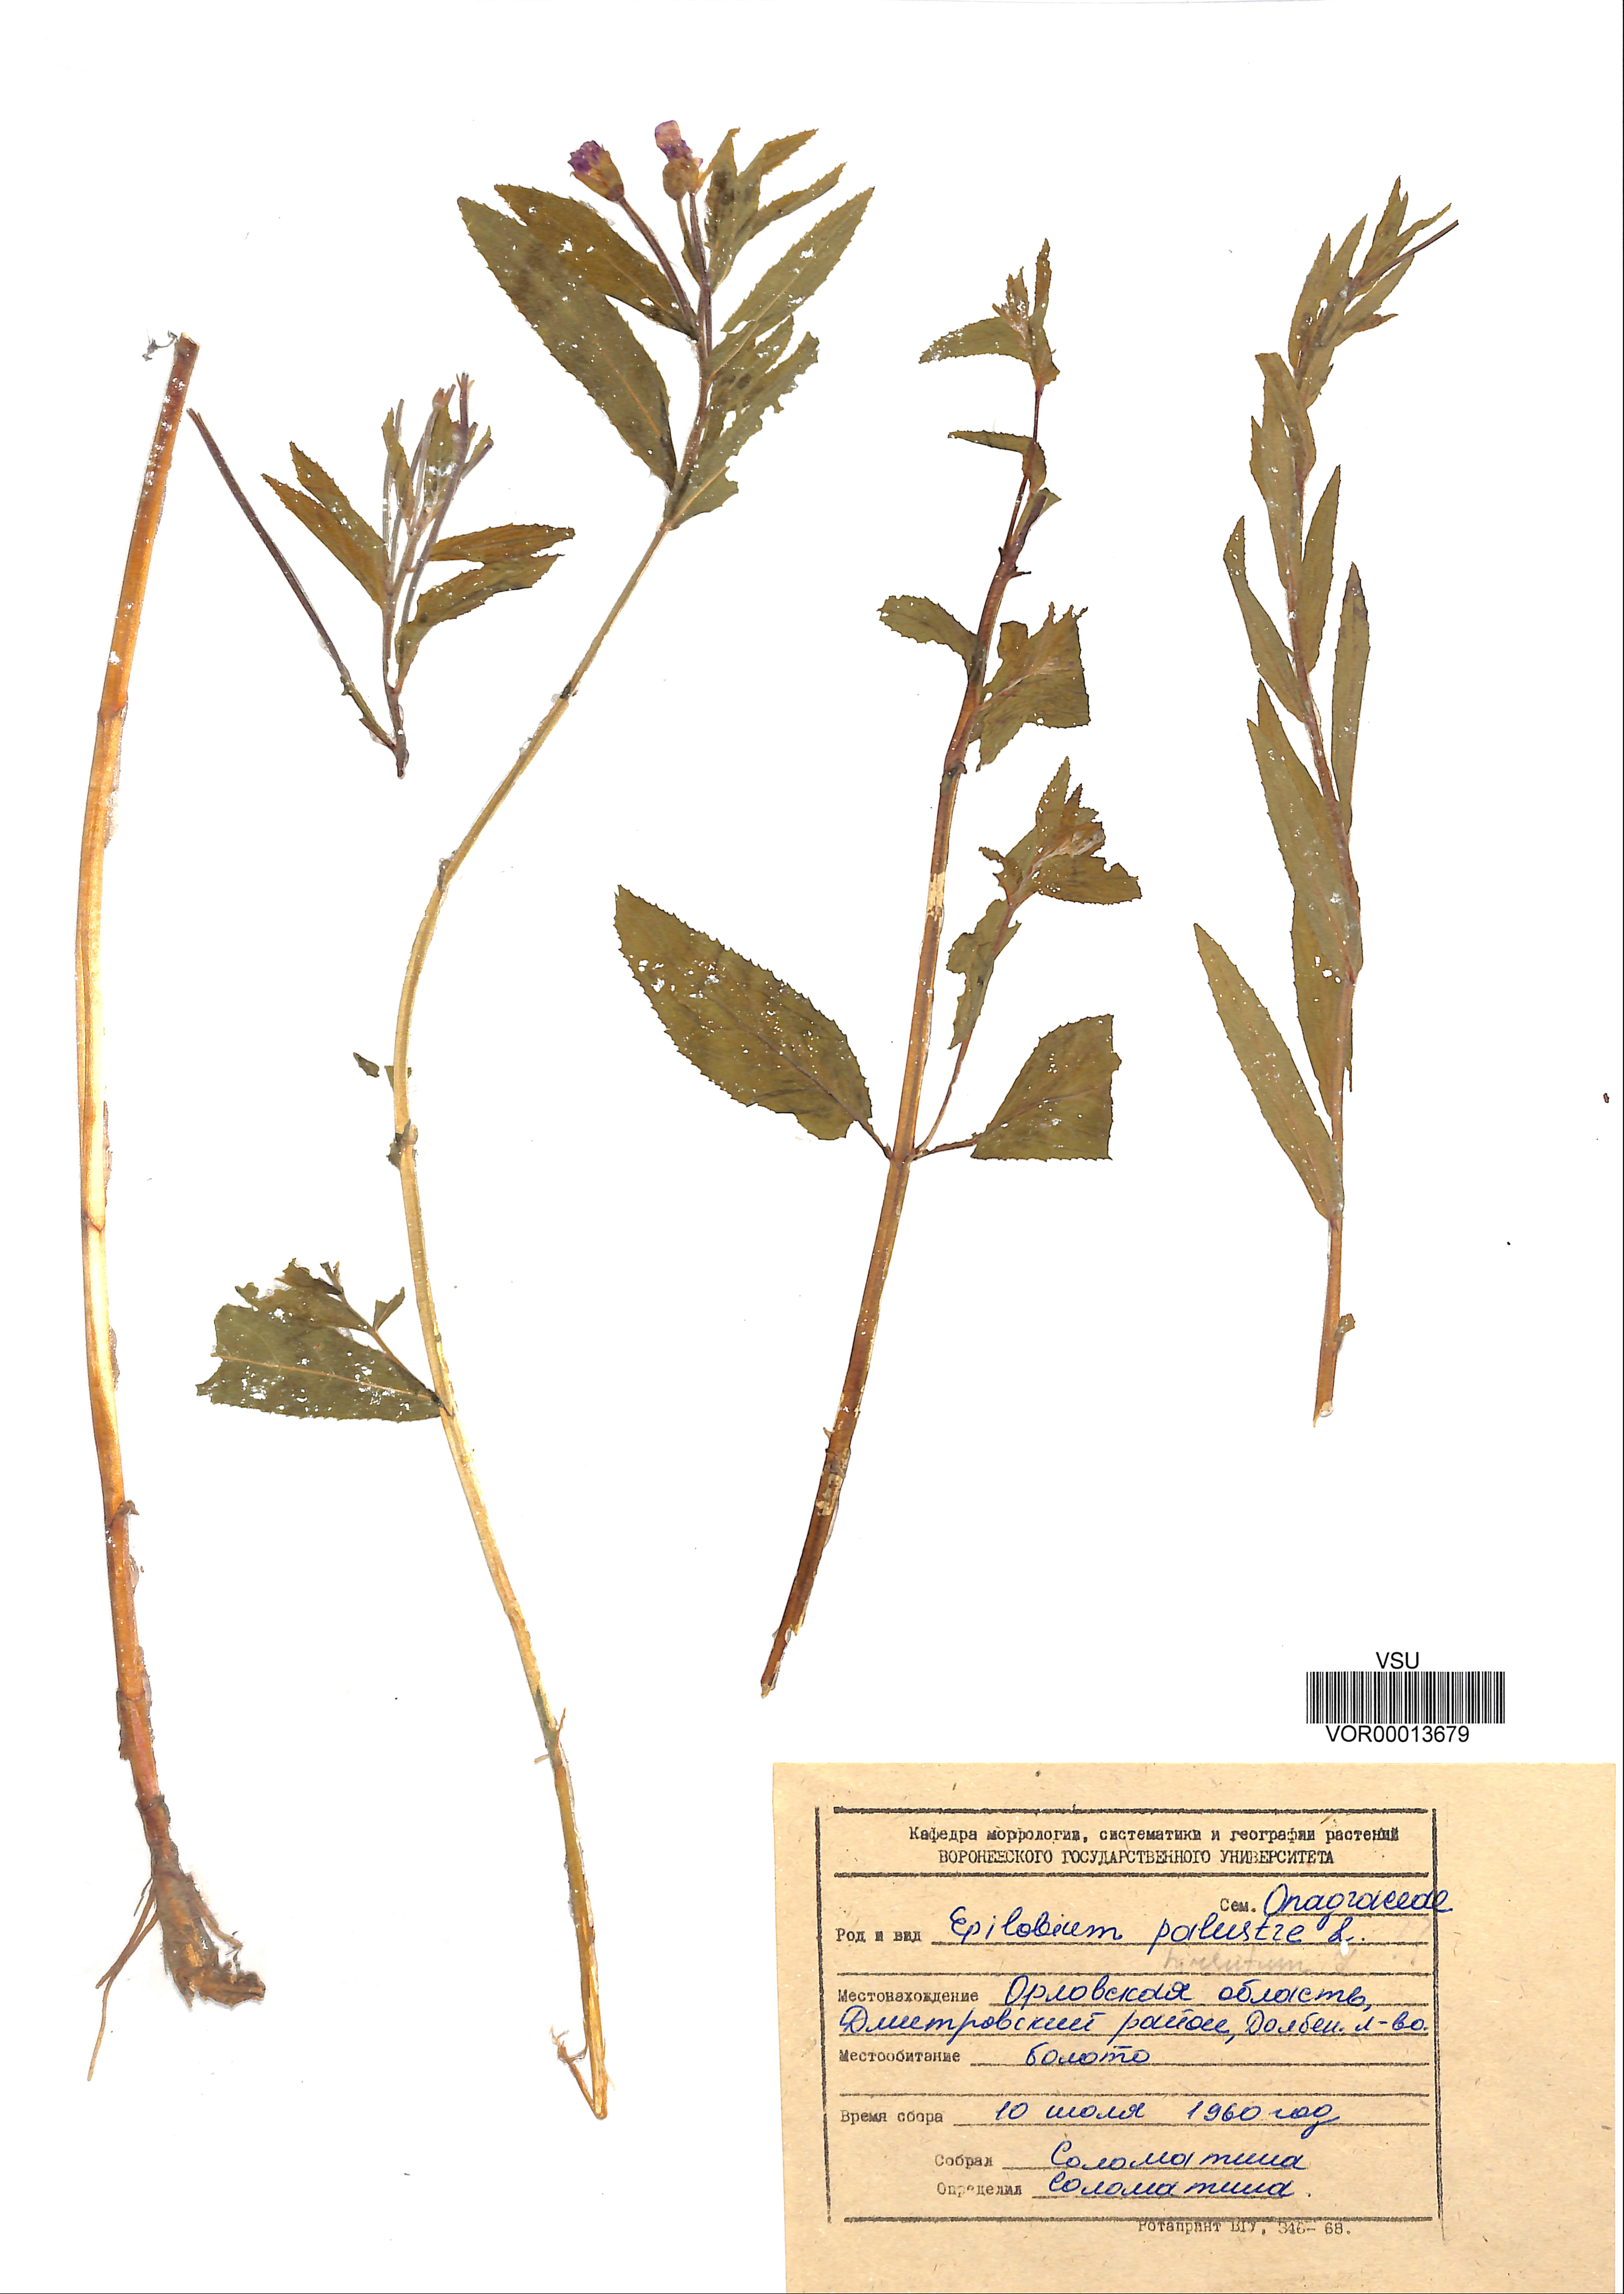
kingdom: Plantae
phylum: Tracheophyta
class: Magnoliopsida
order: Myrtales
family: Onagraceae
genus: Epilobium
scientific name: Epilobium palustre
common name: Marsh willowherb
